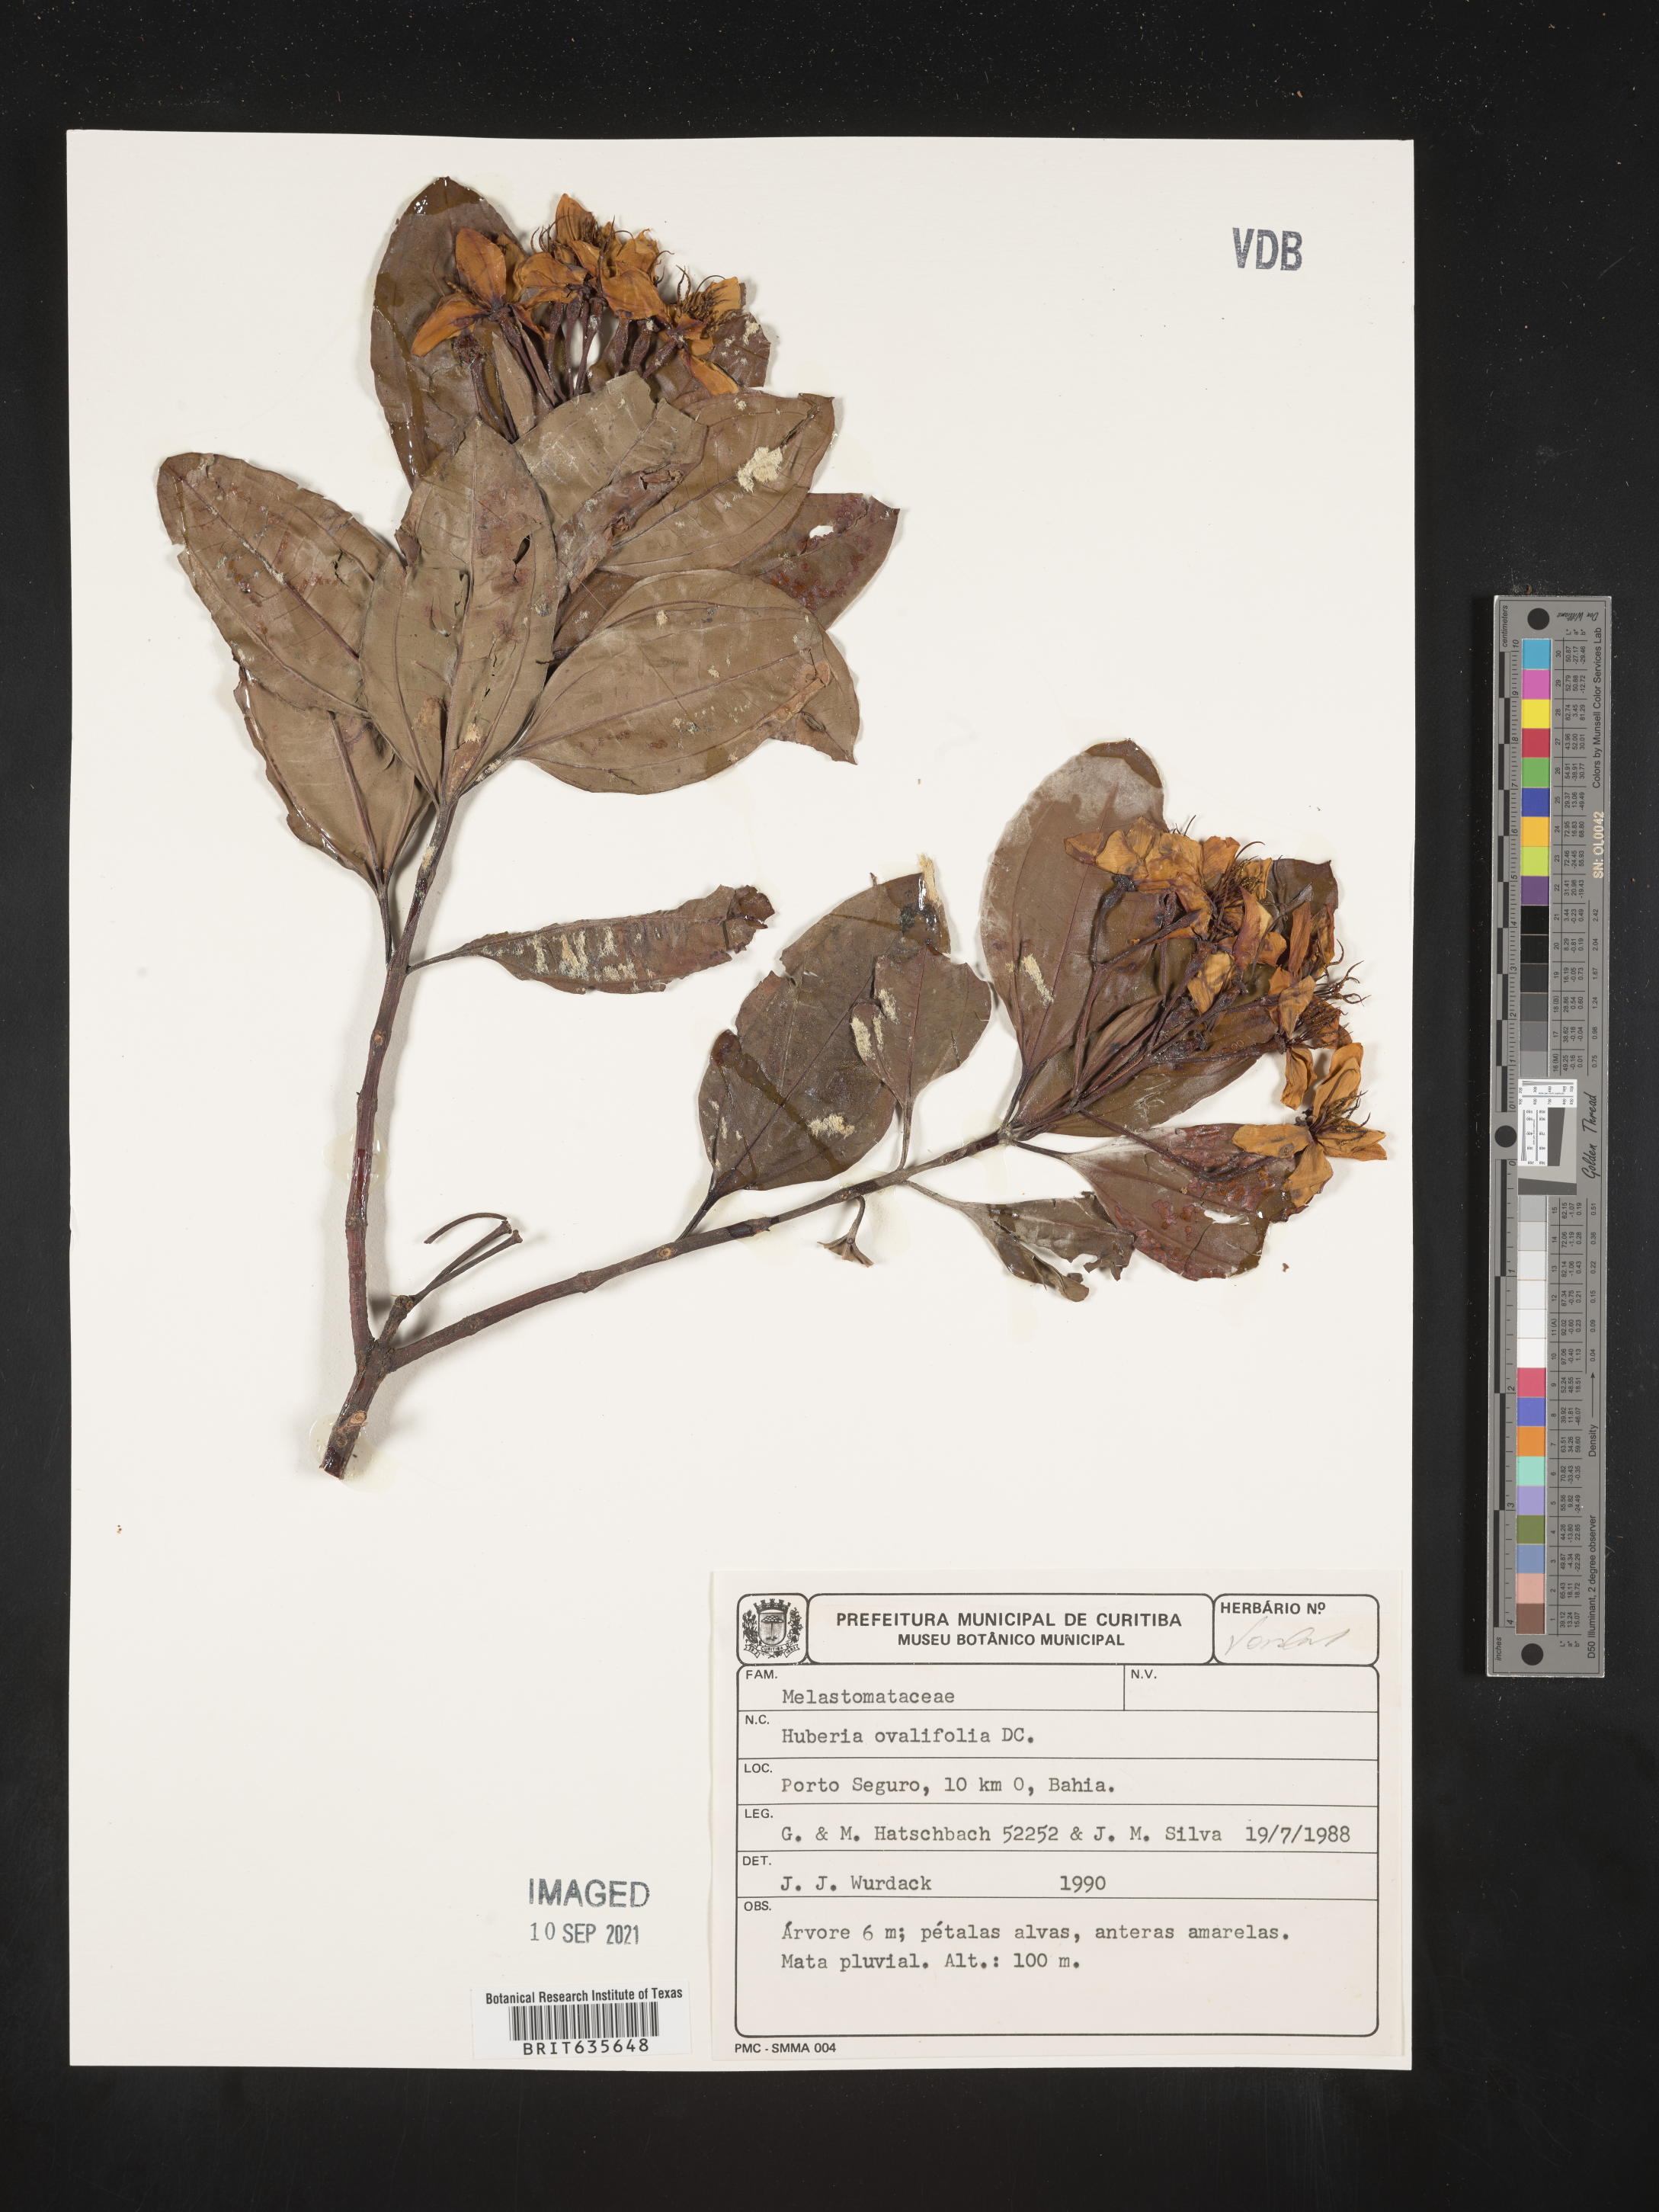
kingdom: Plantae
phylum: Tracheophyta
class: Magnoliopsida
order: Myrtales
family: Melastomataceae
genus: Huberia
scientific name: Huberia
